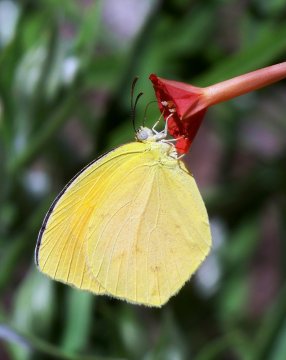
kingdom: Animalia
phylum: Arthropoda
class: Insecta
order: Lepidoptera
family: Pieridae
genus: Pyrisitia
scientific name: Pyrisitia proterpia
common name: Tailed Orange
